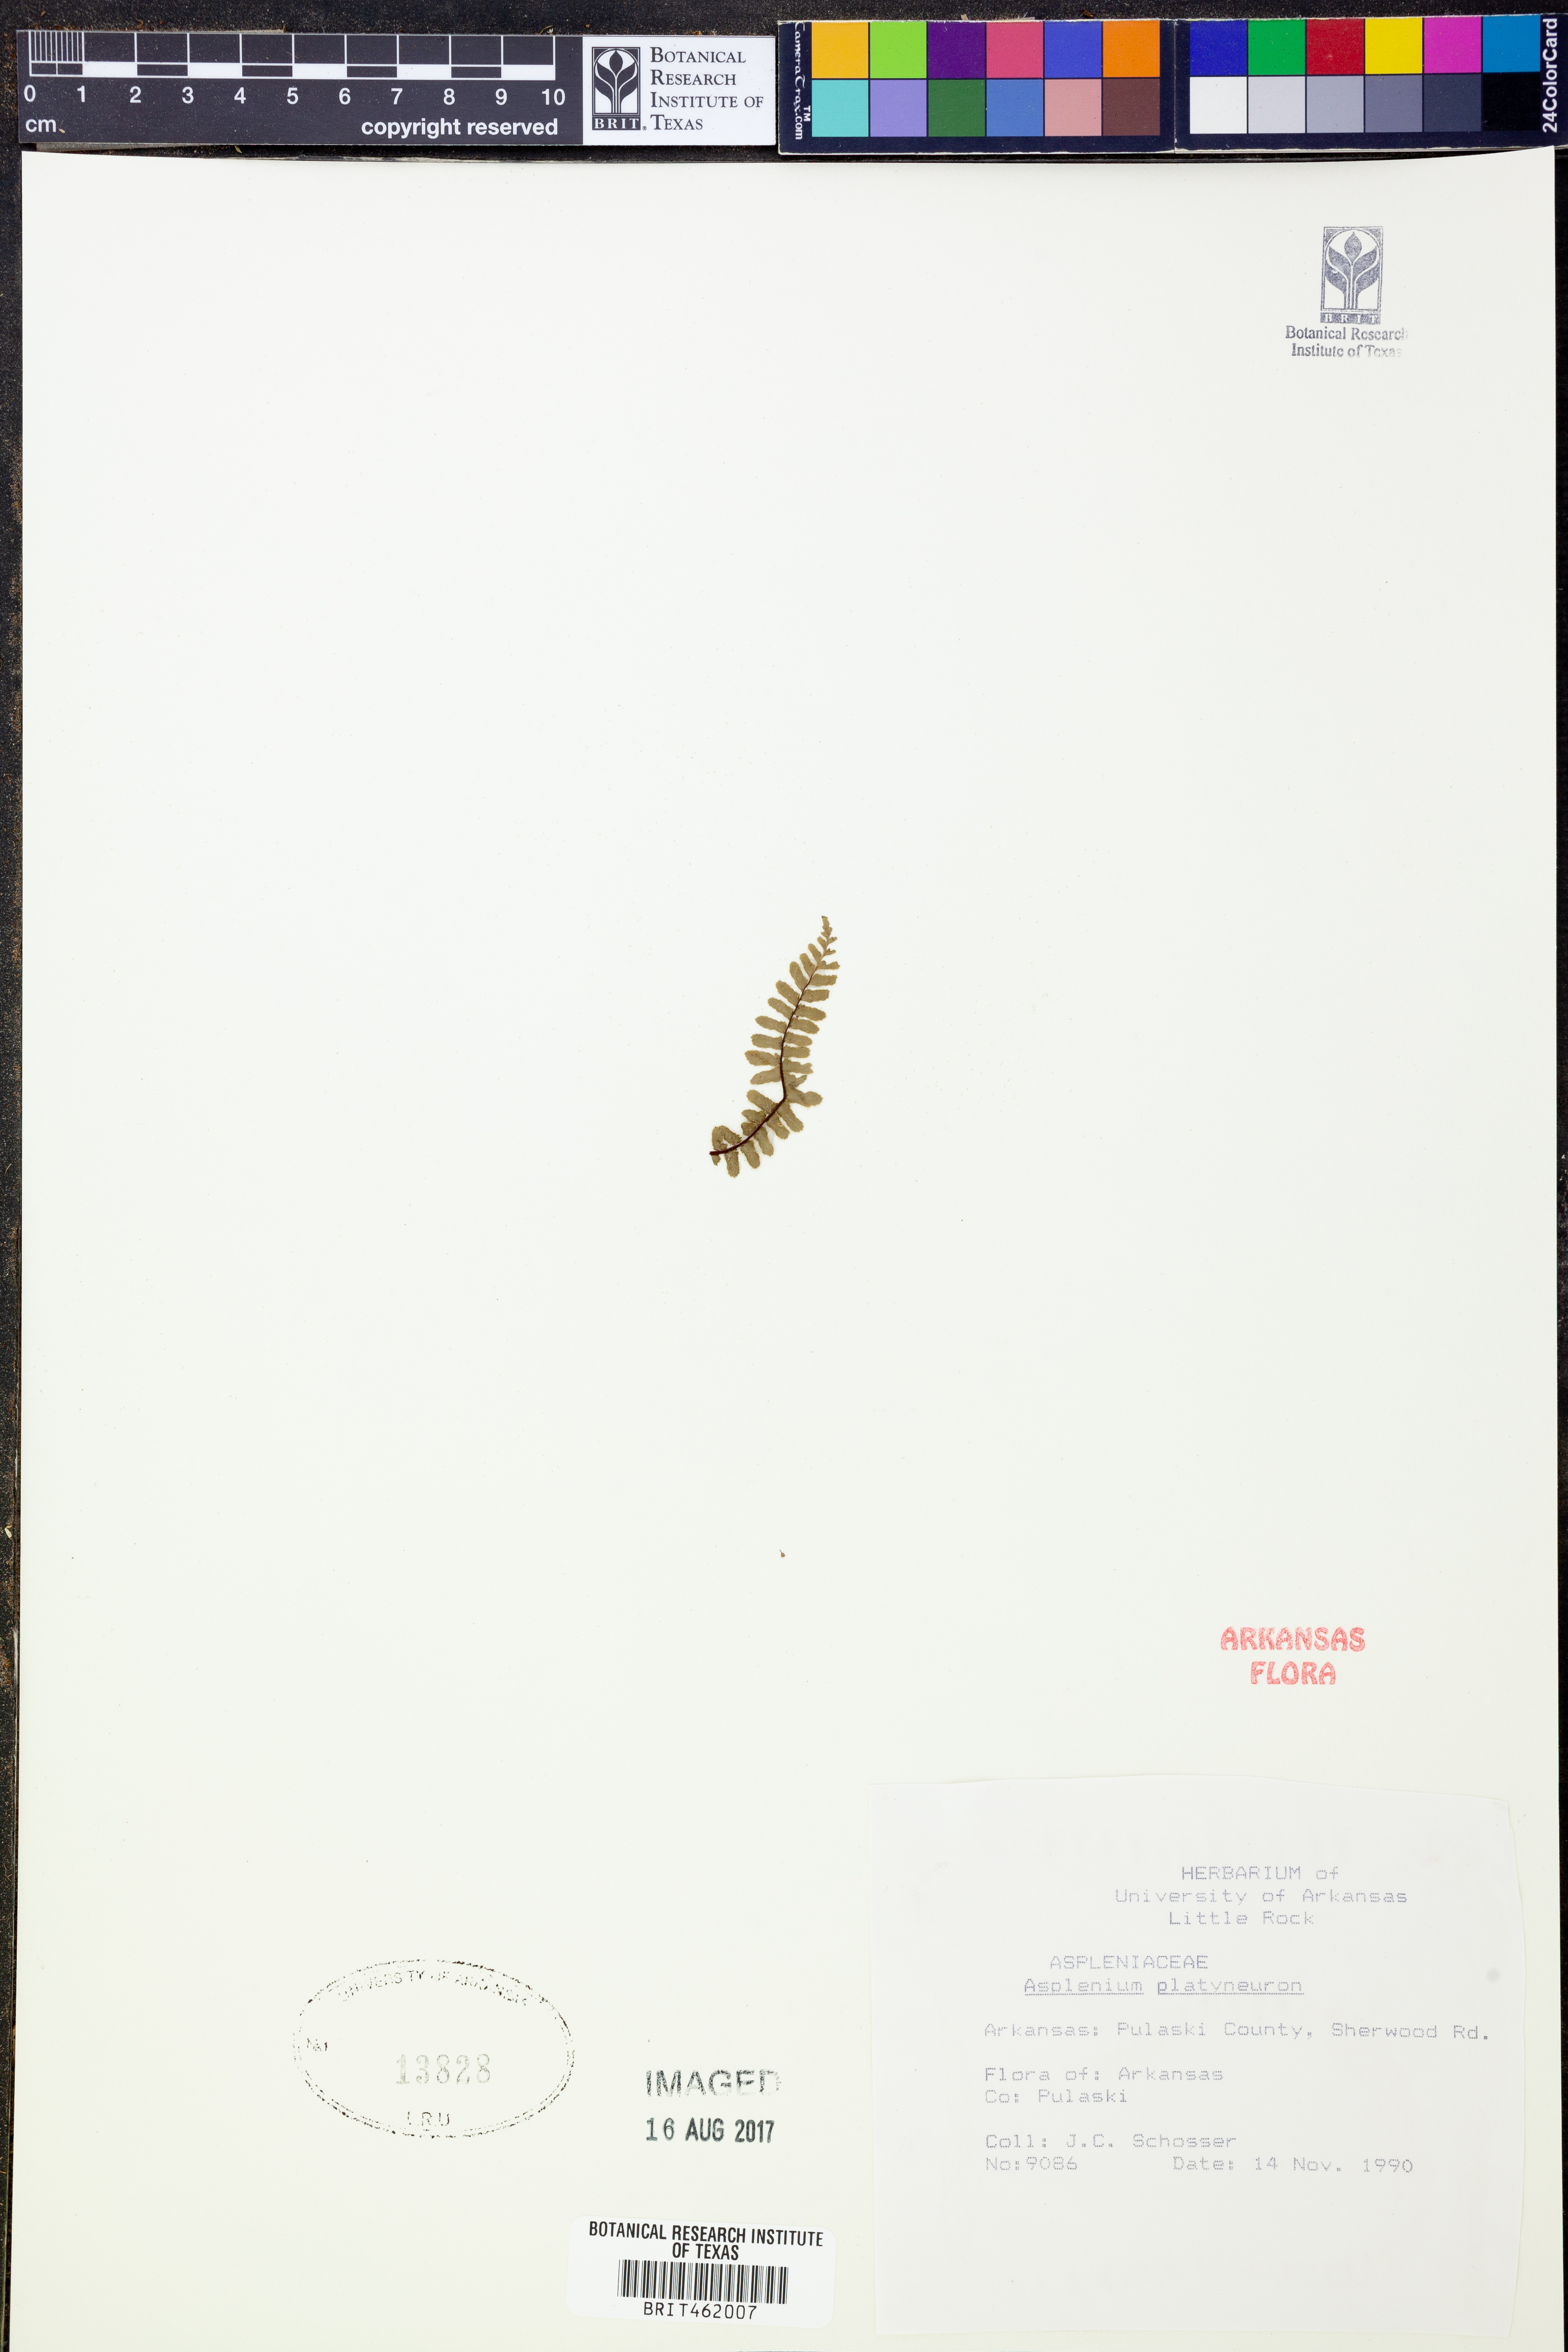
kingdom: Plantae
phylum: Tracheophyta
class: Polypodiopsida
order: Polypodiales
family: Aspleniaceae
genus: Asplenium
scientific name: Asplenium platyneuron
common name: Ebony spleenwort
